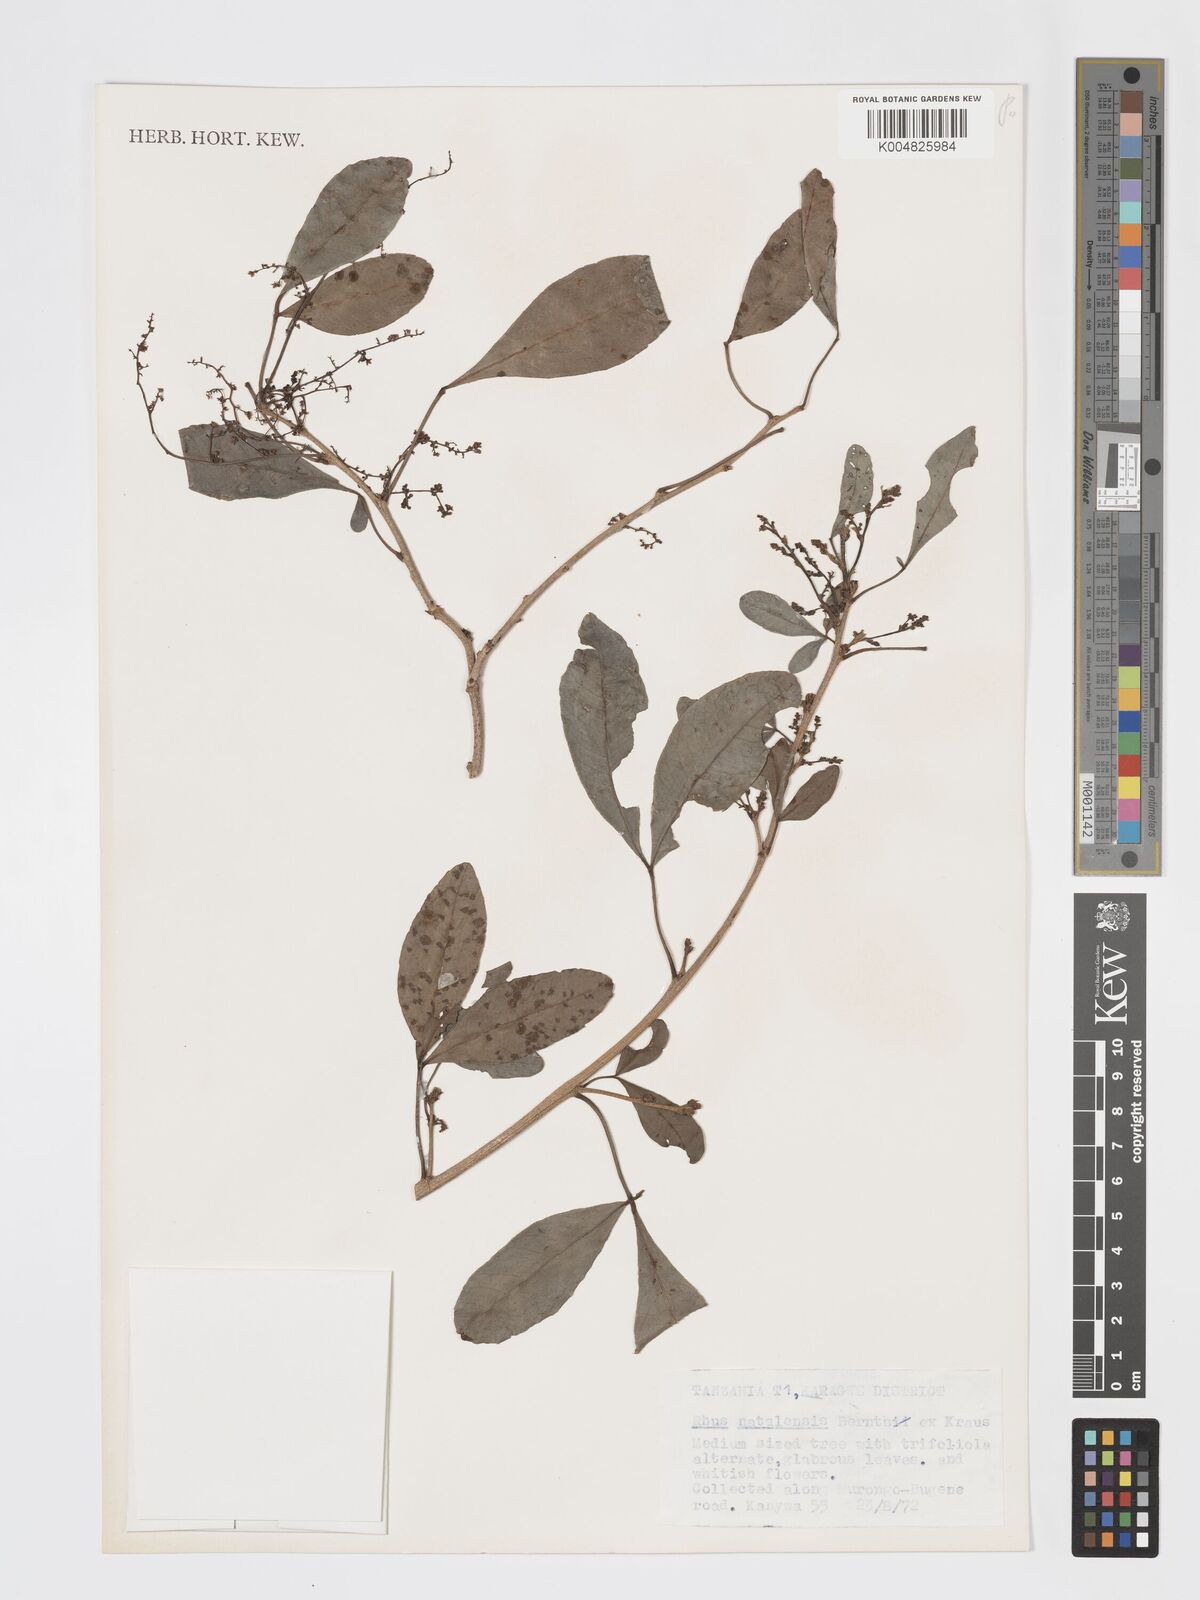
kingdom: Plantae
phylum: Tracheophyta
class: Magnoliopsida
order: Sapindales
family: Anacardiaceae
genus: Searsia
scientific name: Searsia natalensis
